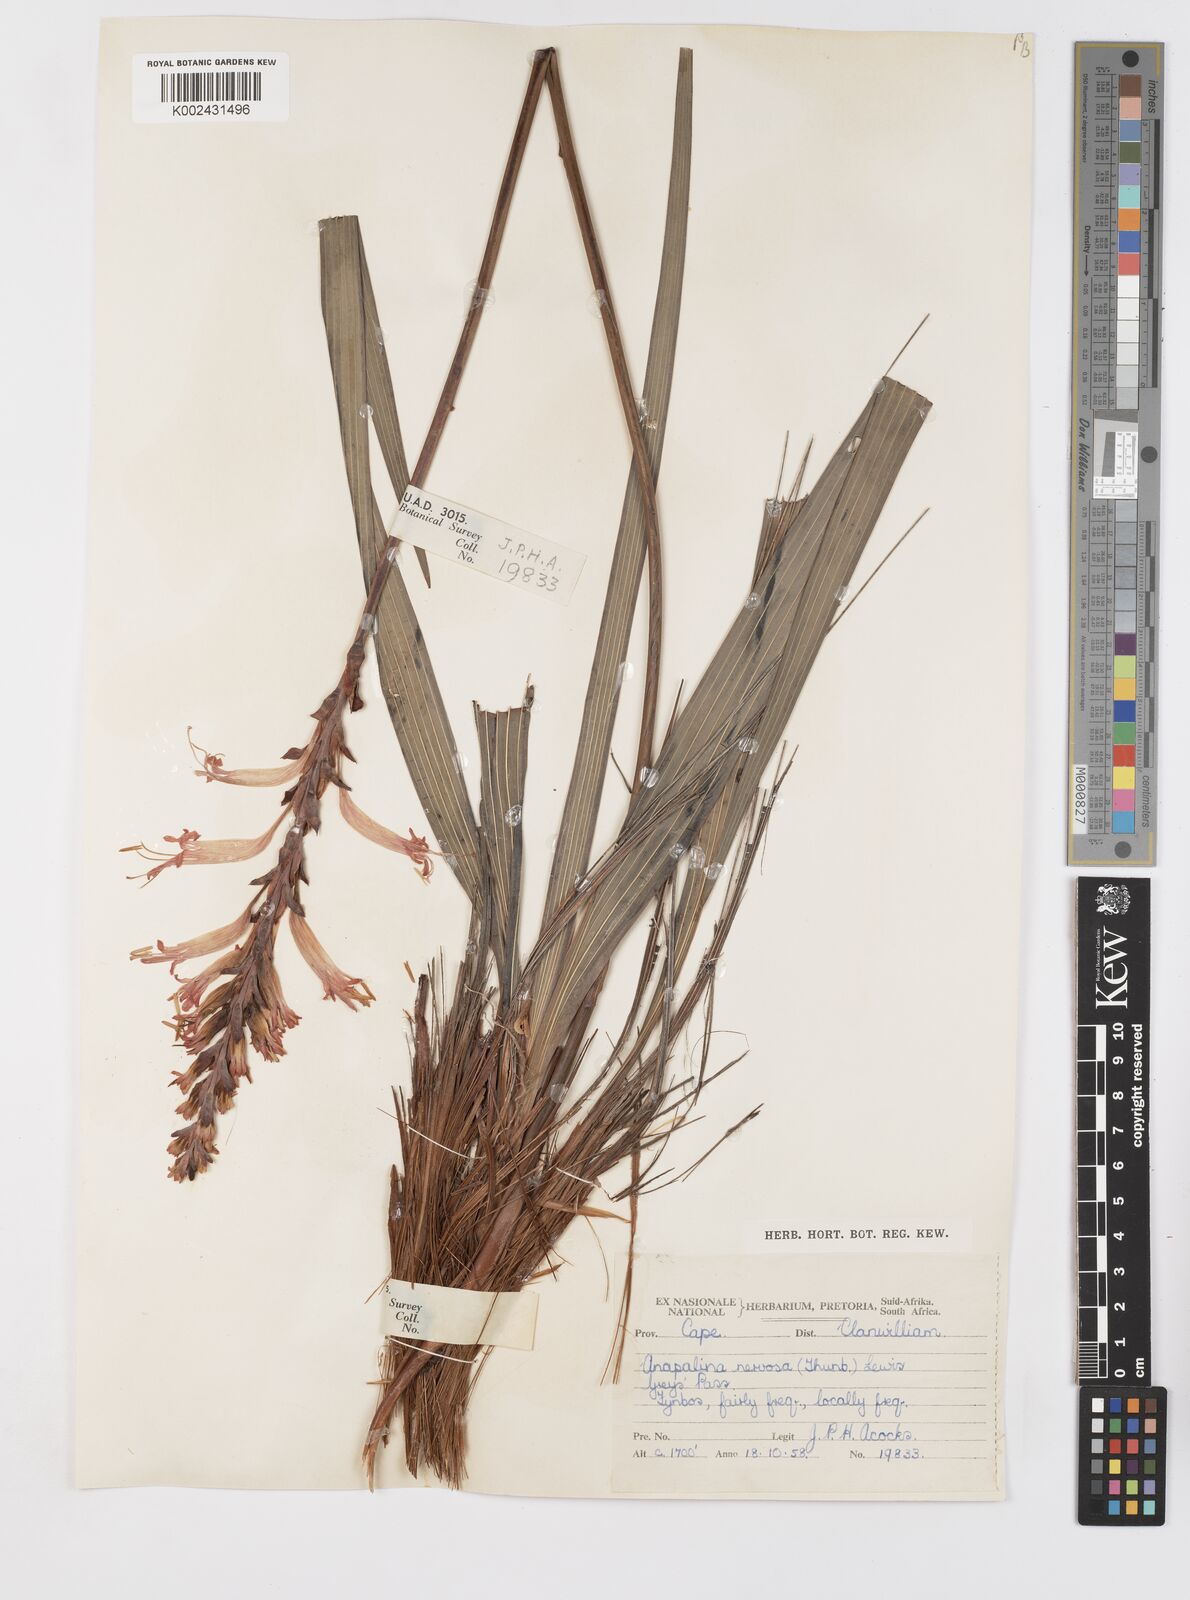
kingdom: Plantae
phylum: Tracheophyta
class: Liliopsida
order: Asparagales
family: Iridaceae
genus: Tritoniopsis
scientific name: Tritoniopsis nervosa
